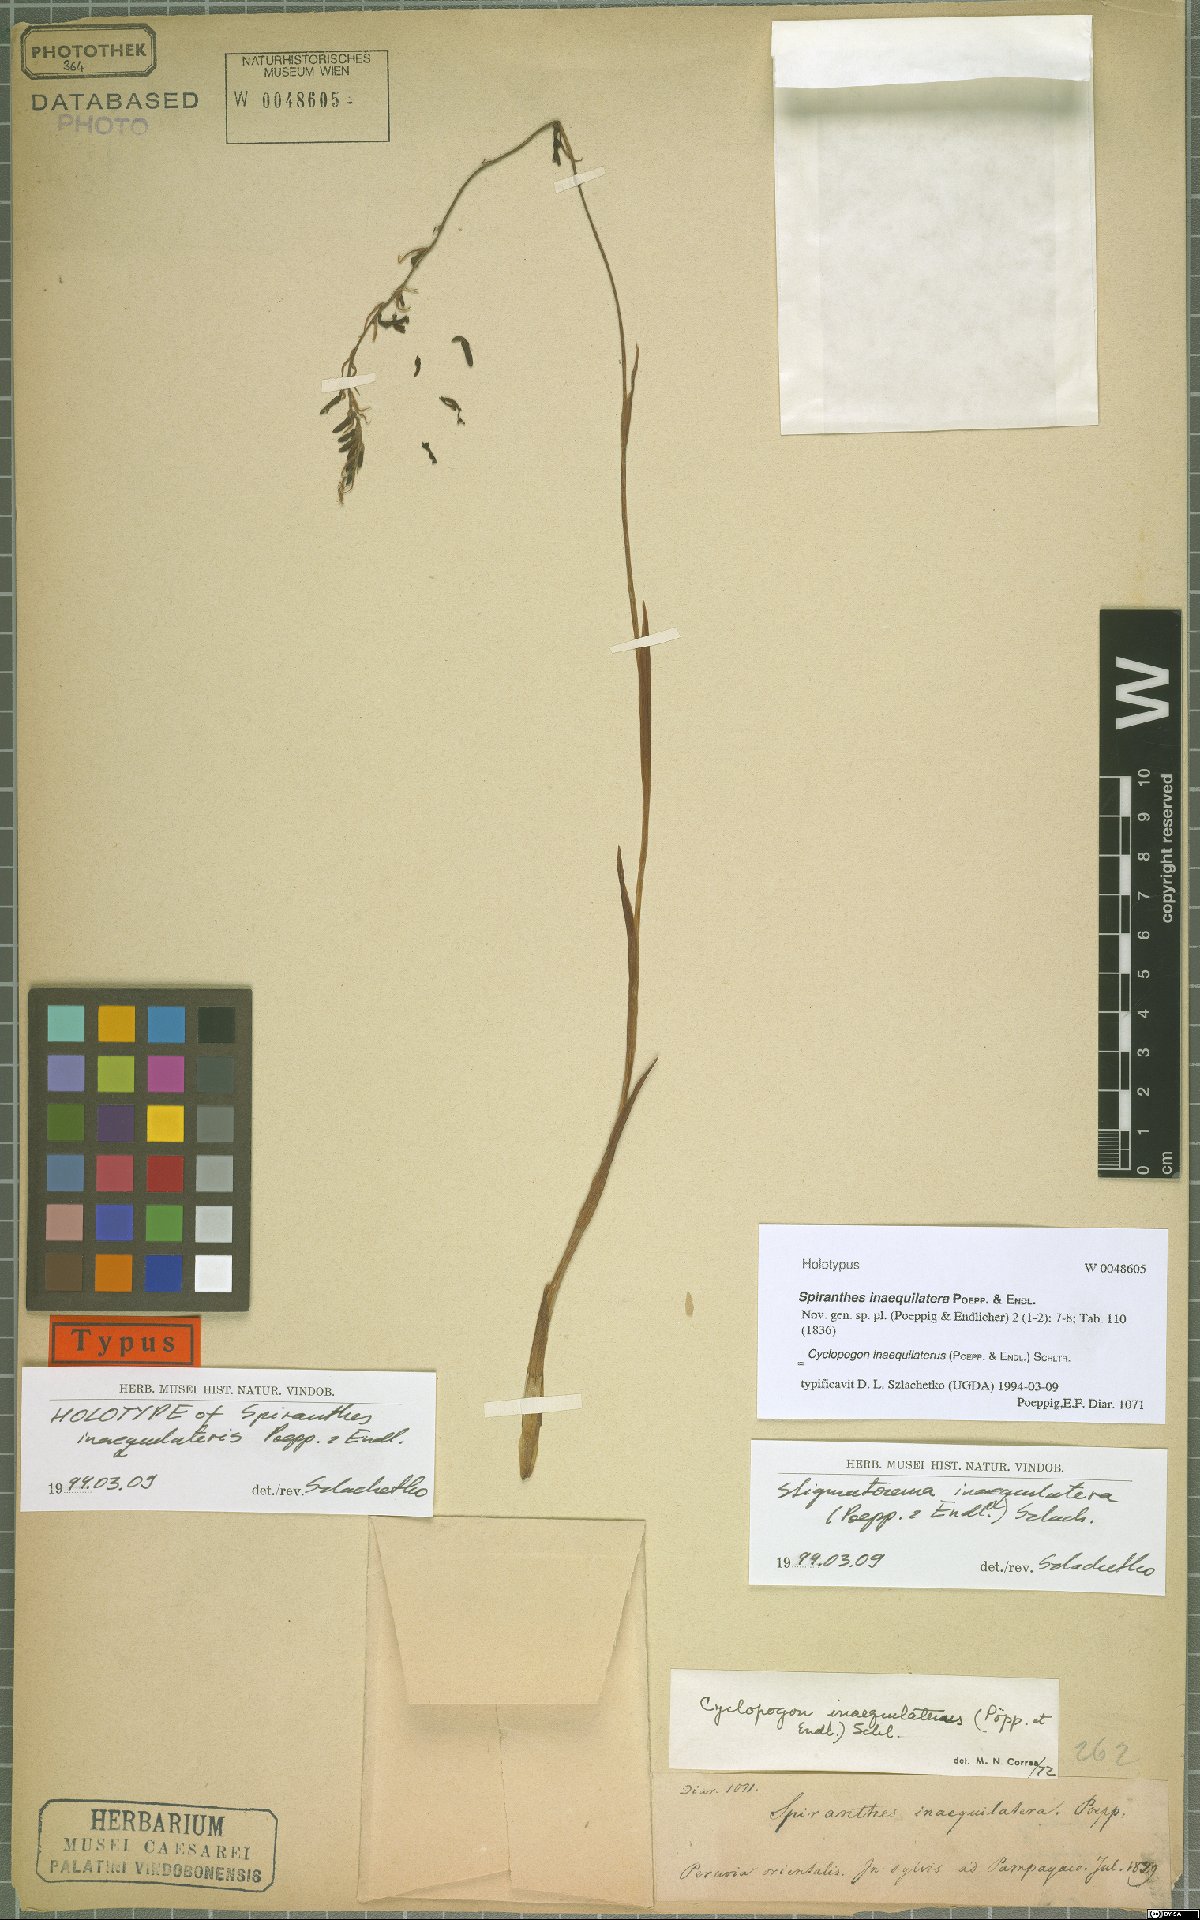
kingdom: Plantae
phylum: Tracheophyta
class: Liliopsida
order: Asparagales
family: Orchidaceae
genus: Cyclopogon
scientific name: Cyclopogon inaequilaterus
